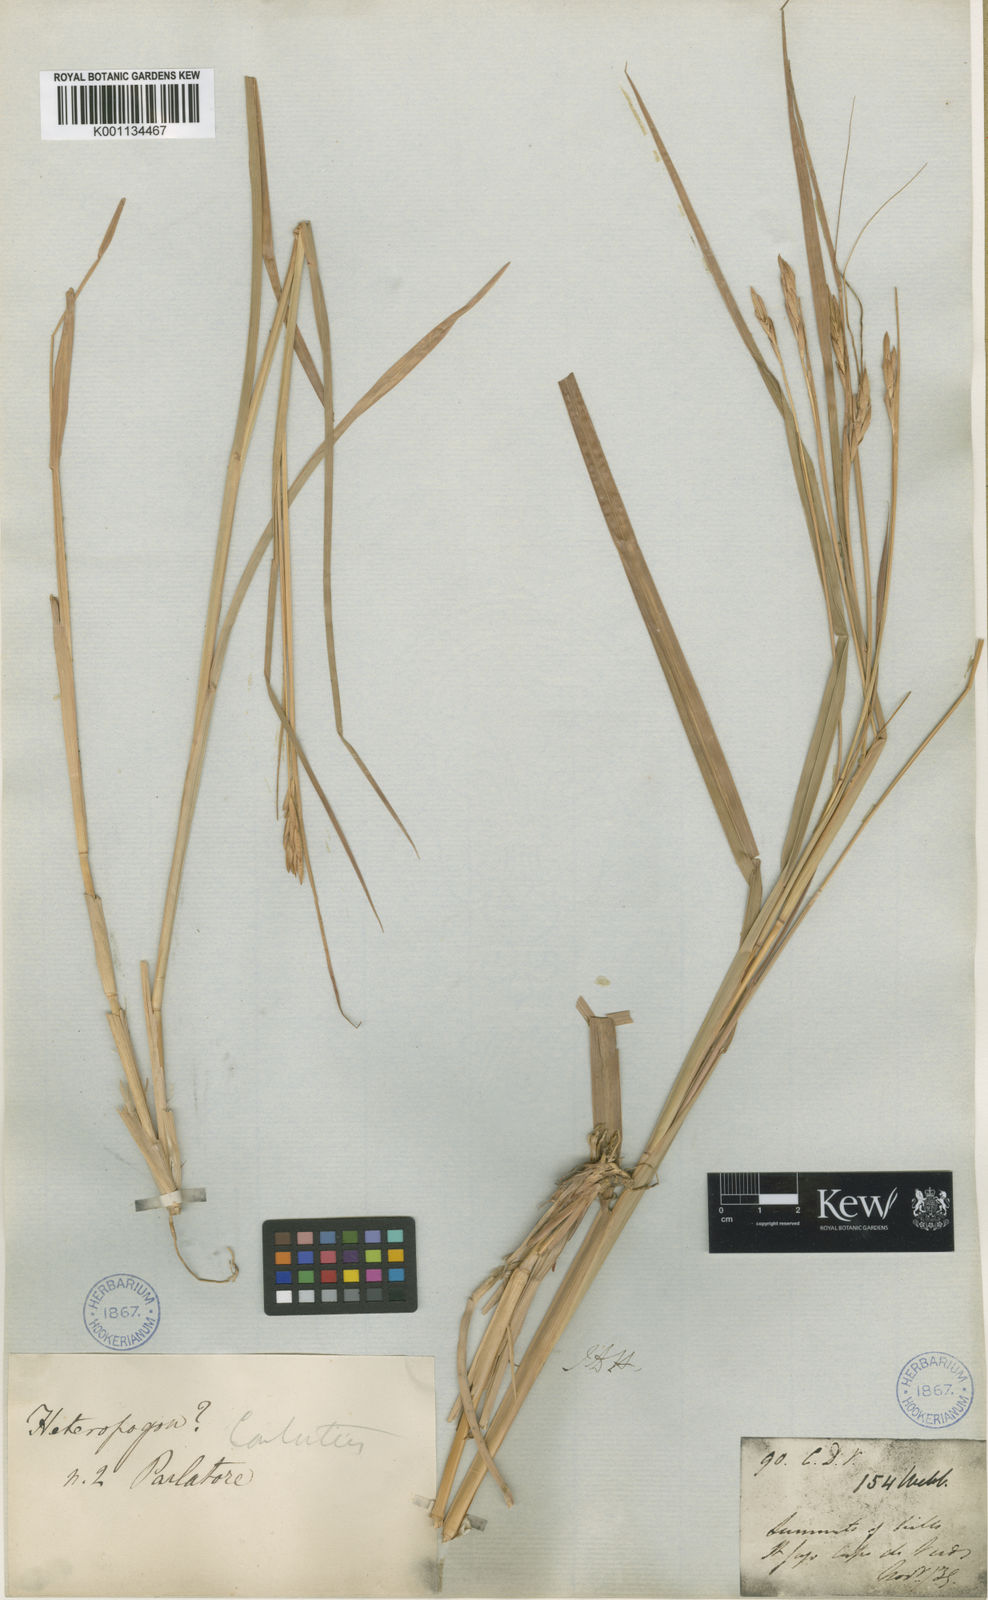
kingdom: Plantae
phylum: Tracheophyta
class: Liliopsida
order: Poales
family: Poaceae
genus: Heteropogon
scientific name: Heteropogon
